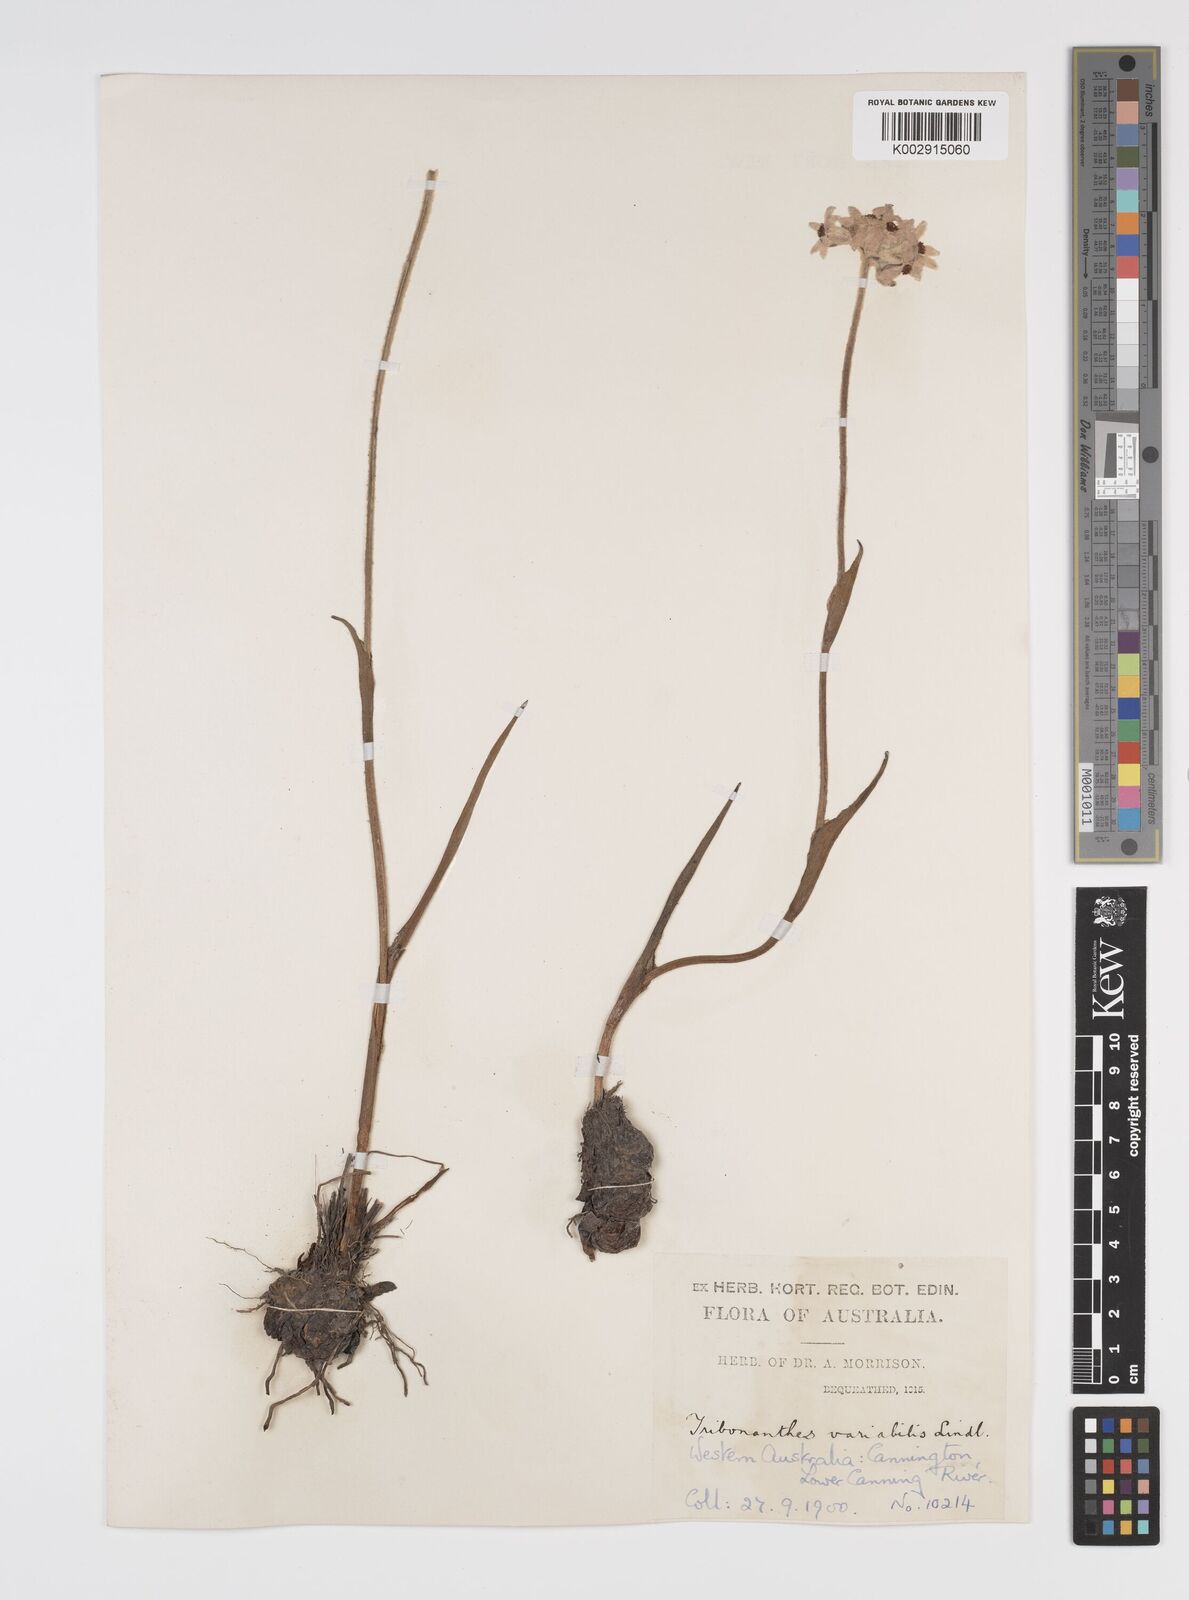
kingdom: Plantae
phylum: Tracheophyta
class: Liliopsida
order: Commelinales
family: Haemodoraceae
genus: Tribonanthes
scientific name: Tribonanthes australis
